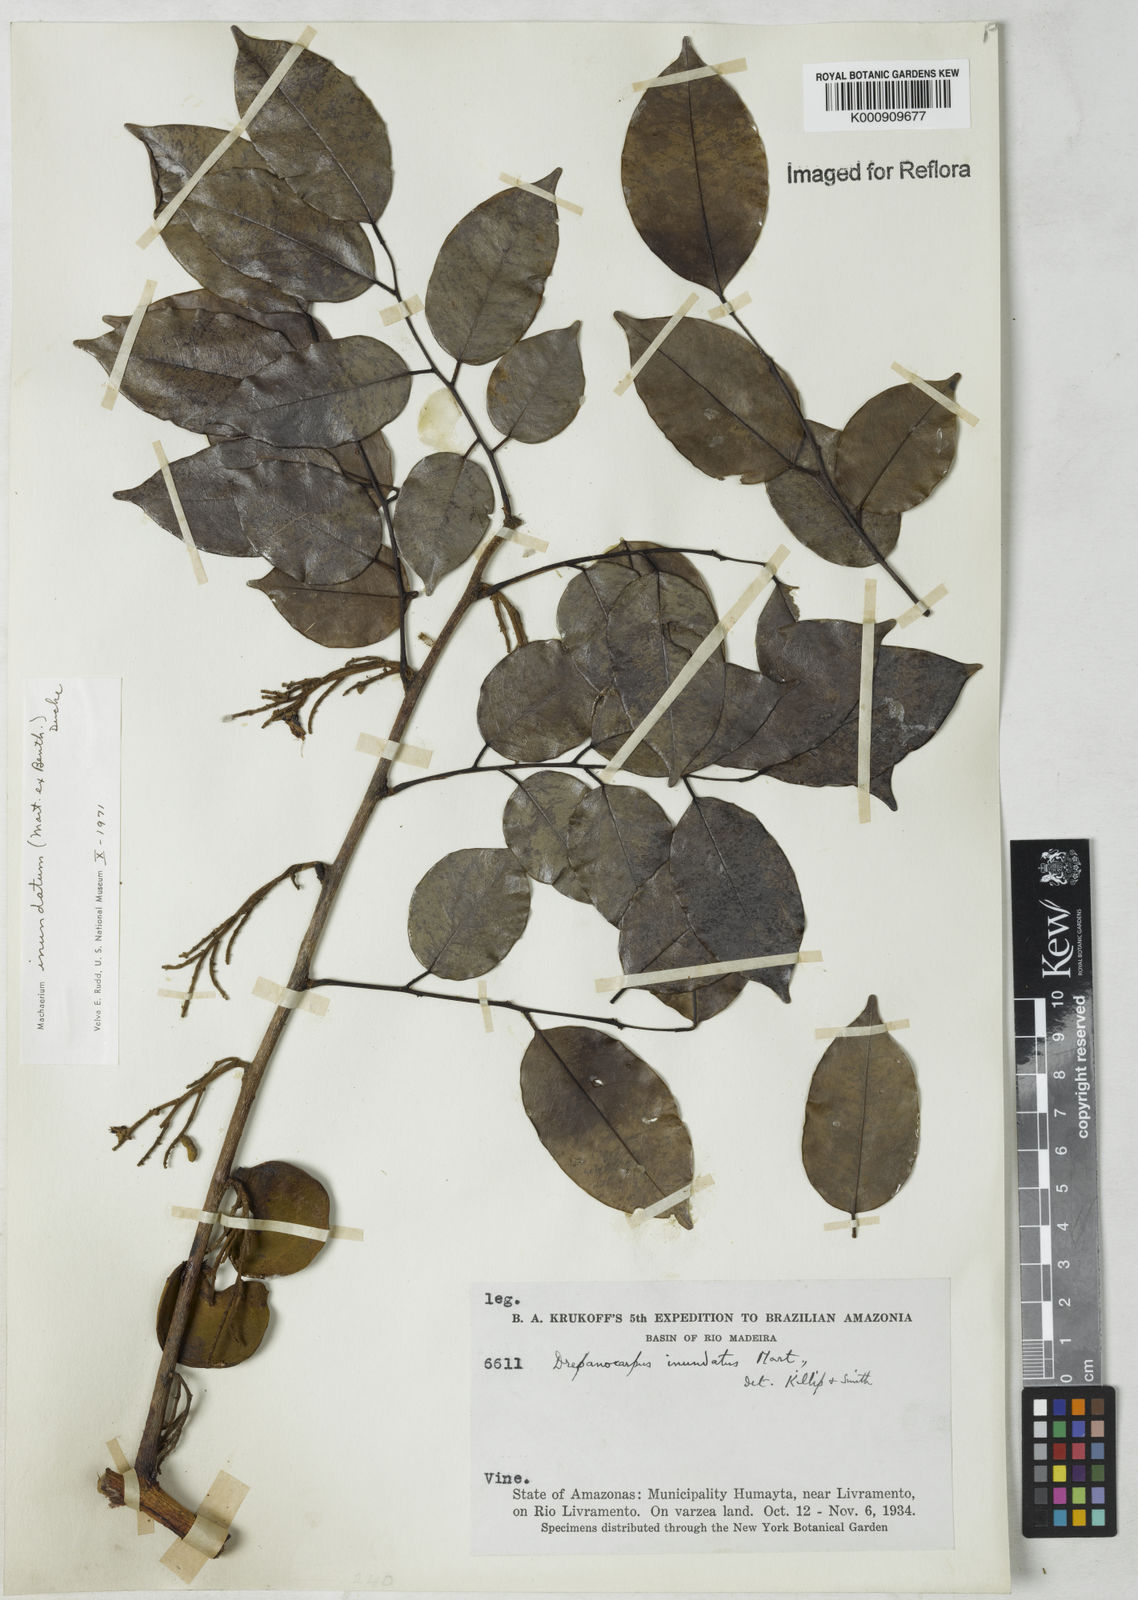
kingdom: Plantae
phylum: Tracheophyta
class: Magnoliopsida
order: Fabales
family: Fabaceae
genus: Machaerium
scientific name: Machaerium inundatum
